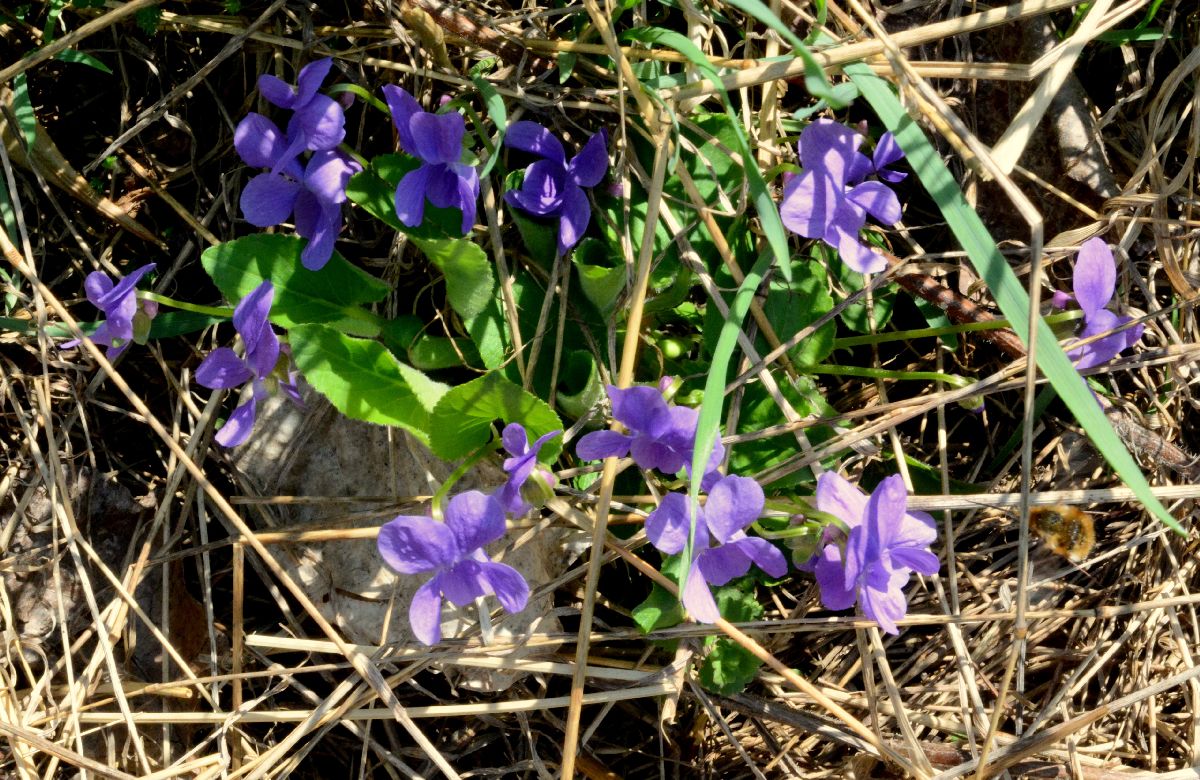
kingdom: Plantae
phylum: Tracheophyta
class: Magnoliopsida
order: Malpighiales
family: Violaceae
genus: Viola
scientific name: Viola hirta
